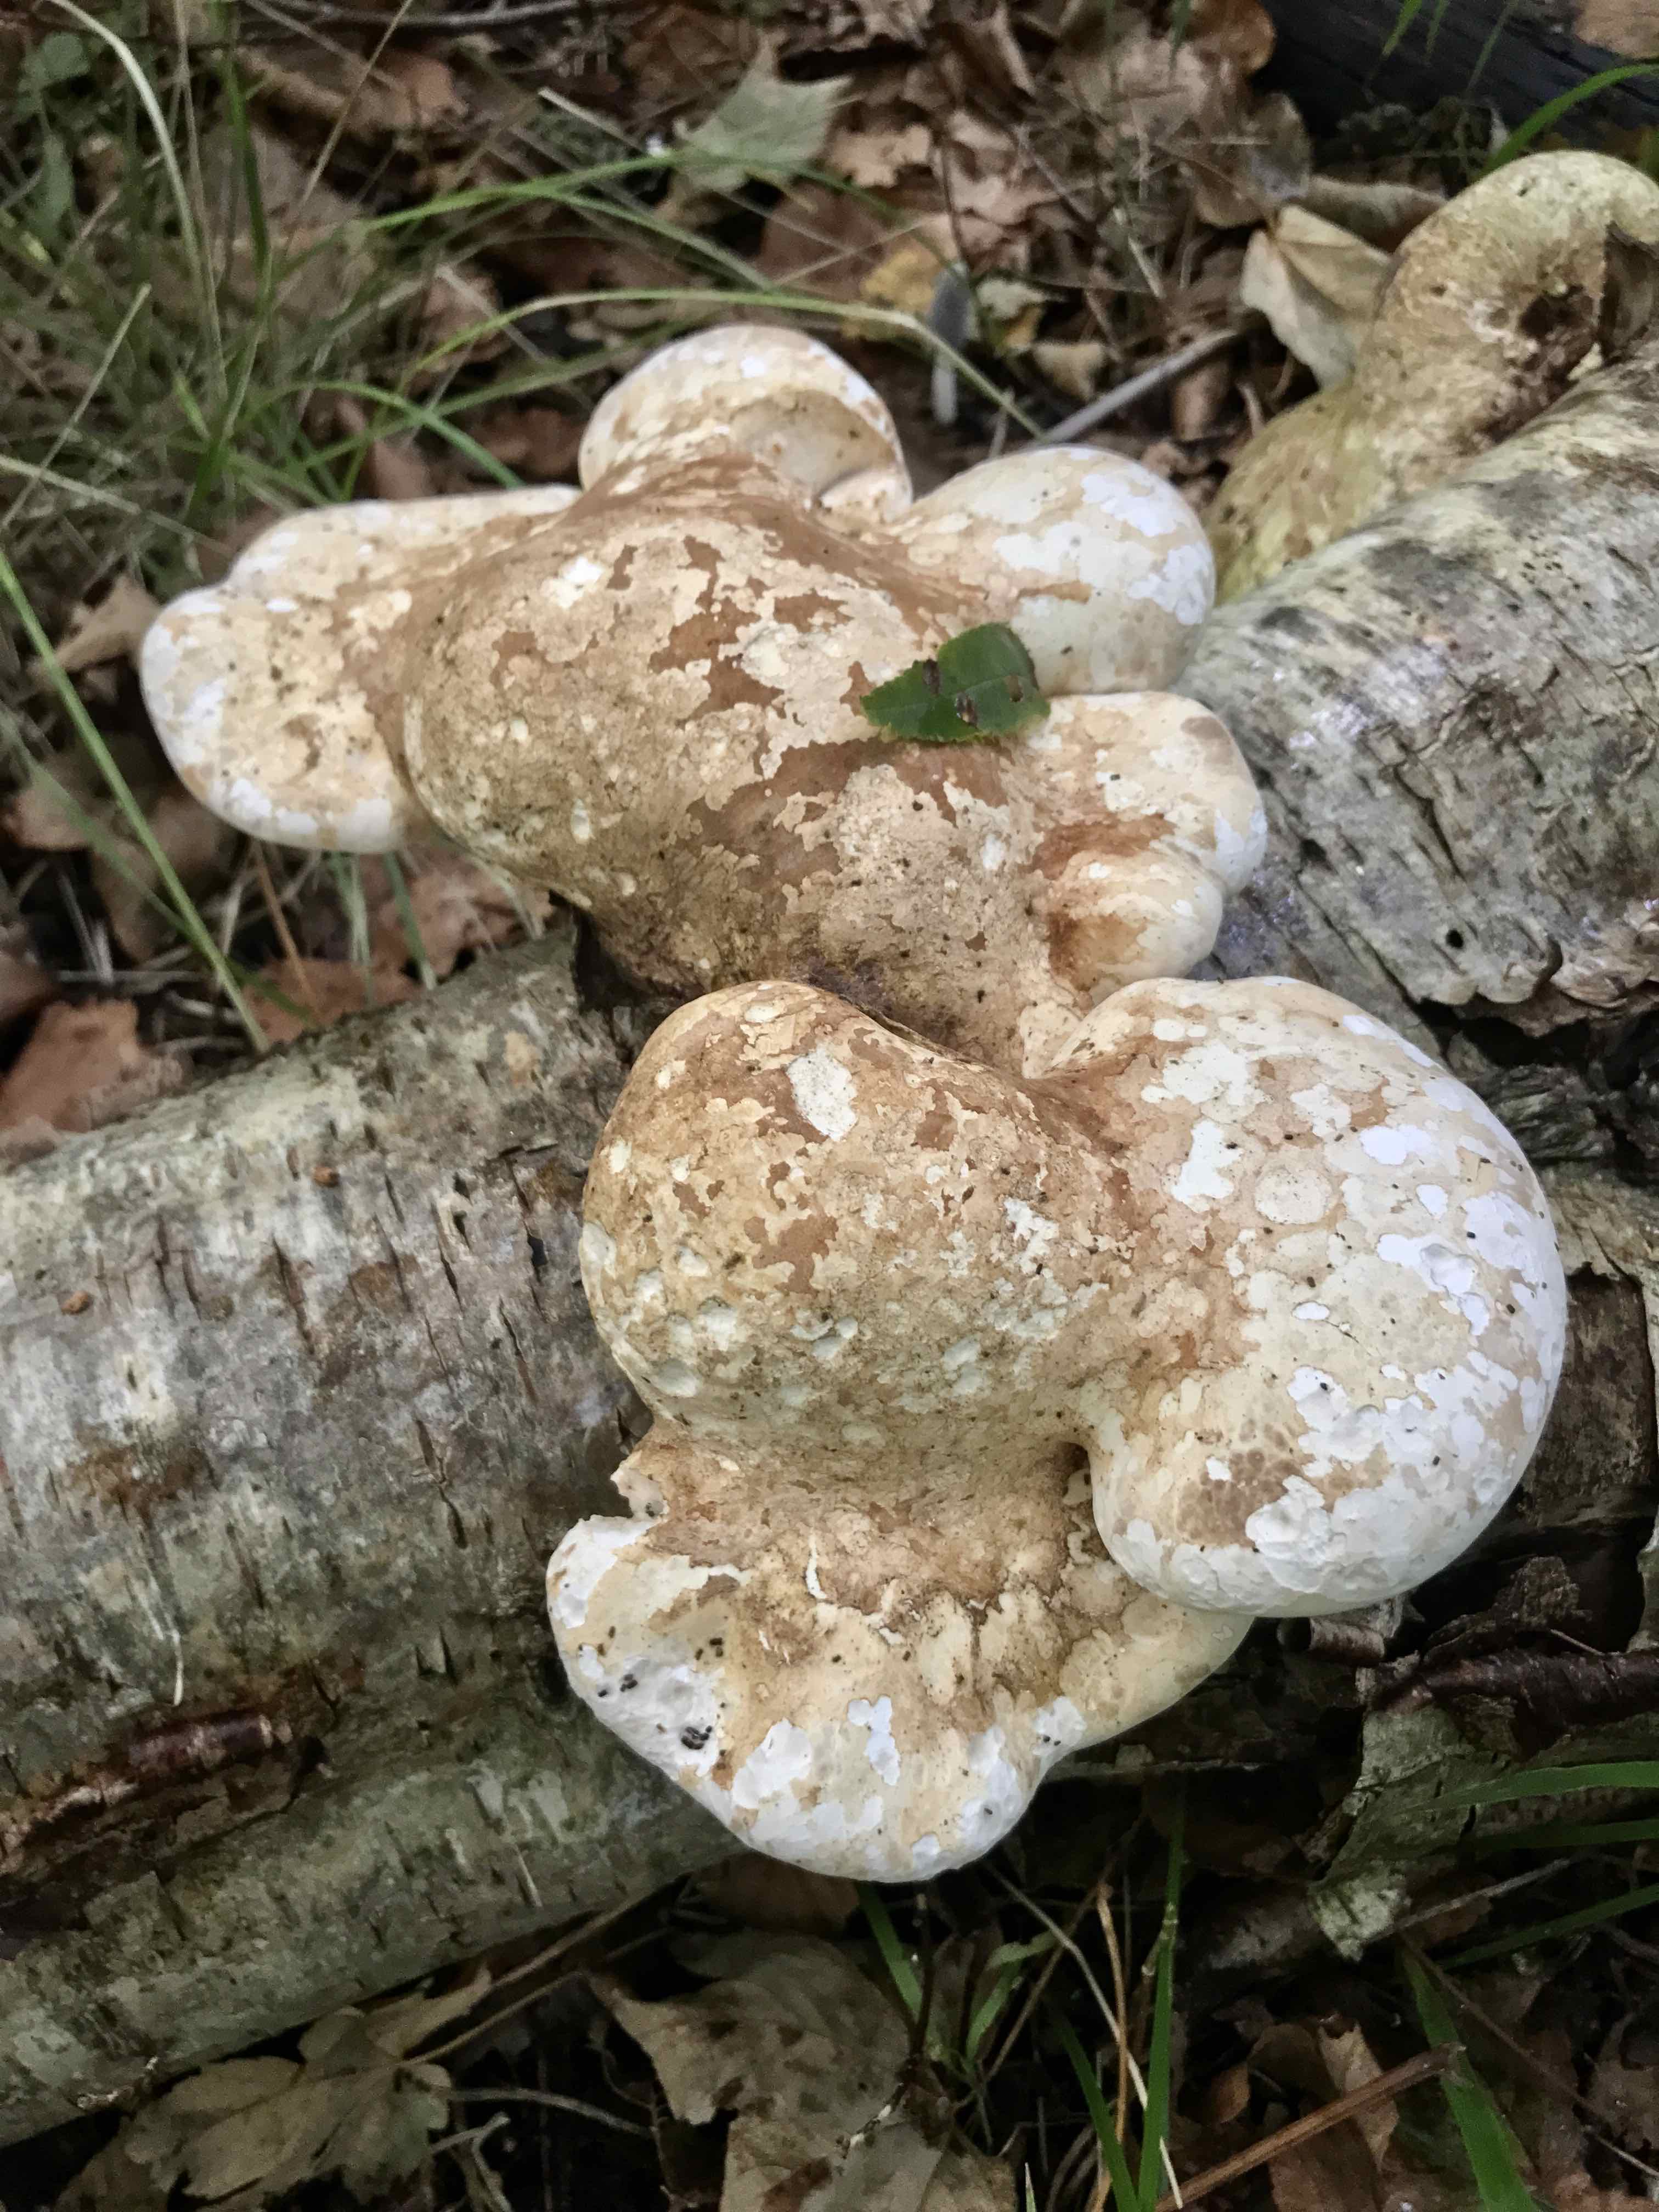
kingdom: Fungi
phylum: Basidiomycota
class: Agaricomycetes
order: Polyporales
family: Fomitopsidaceae
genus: Fomitopsis
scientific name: Fomitopsis betulina
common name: birkeporesvamp
